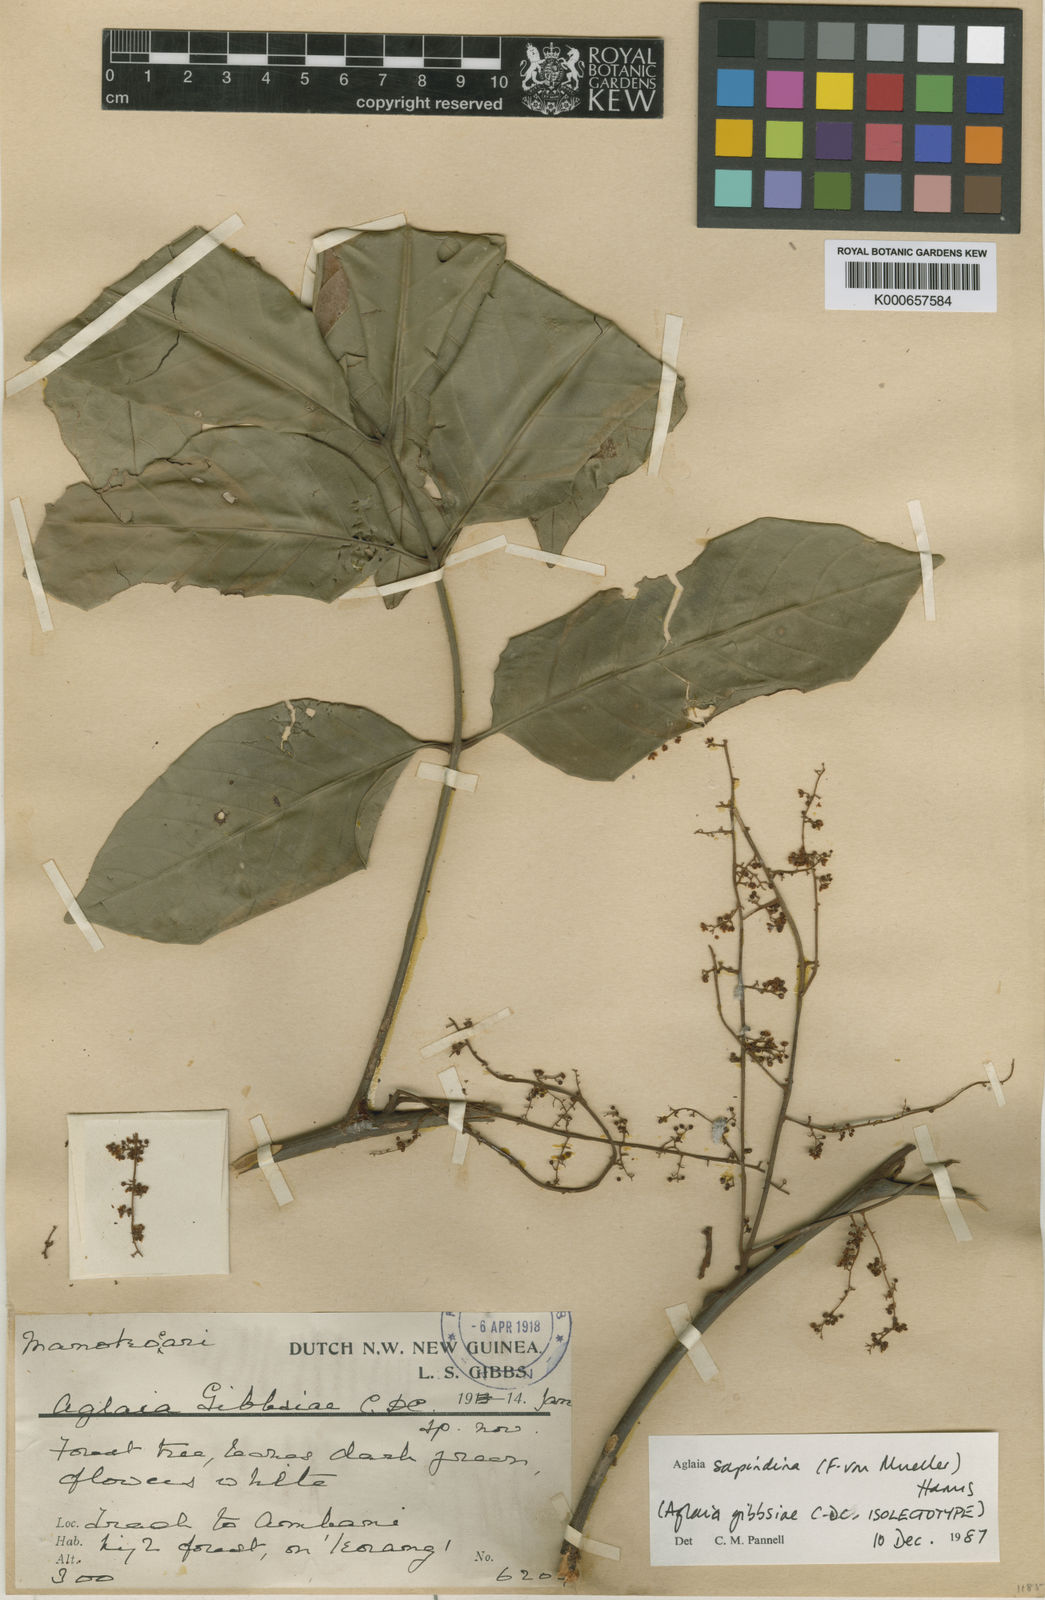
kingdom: Plantae
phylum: Tracheophyta
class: Magnoliopsida
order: Sapindales
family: Meliaceae
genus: Aglaia
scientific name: Aglaia sapindina
